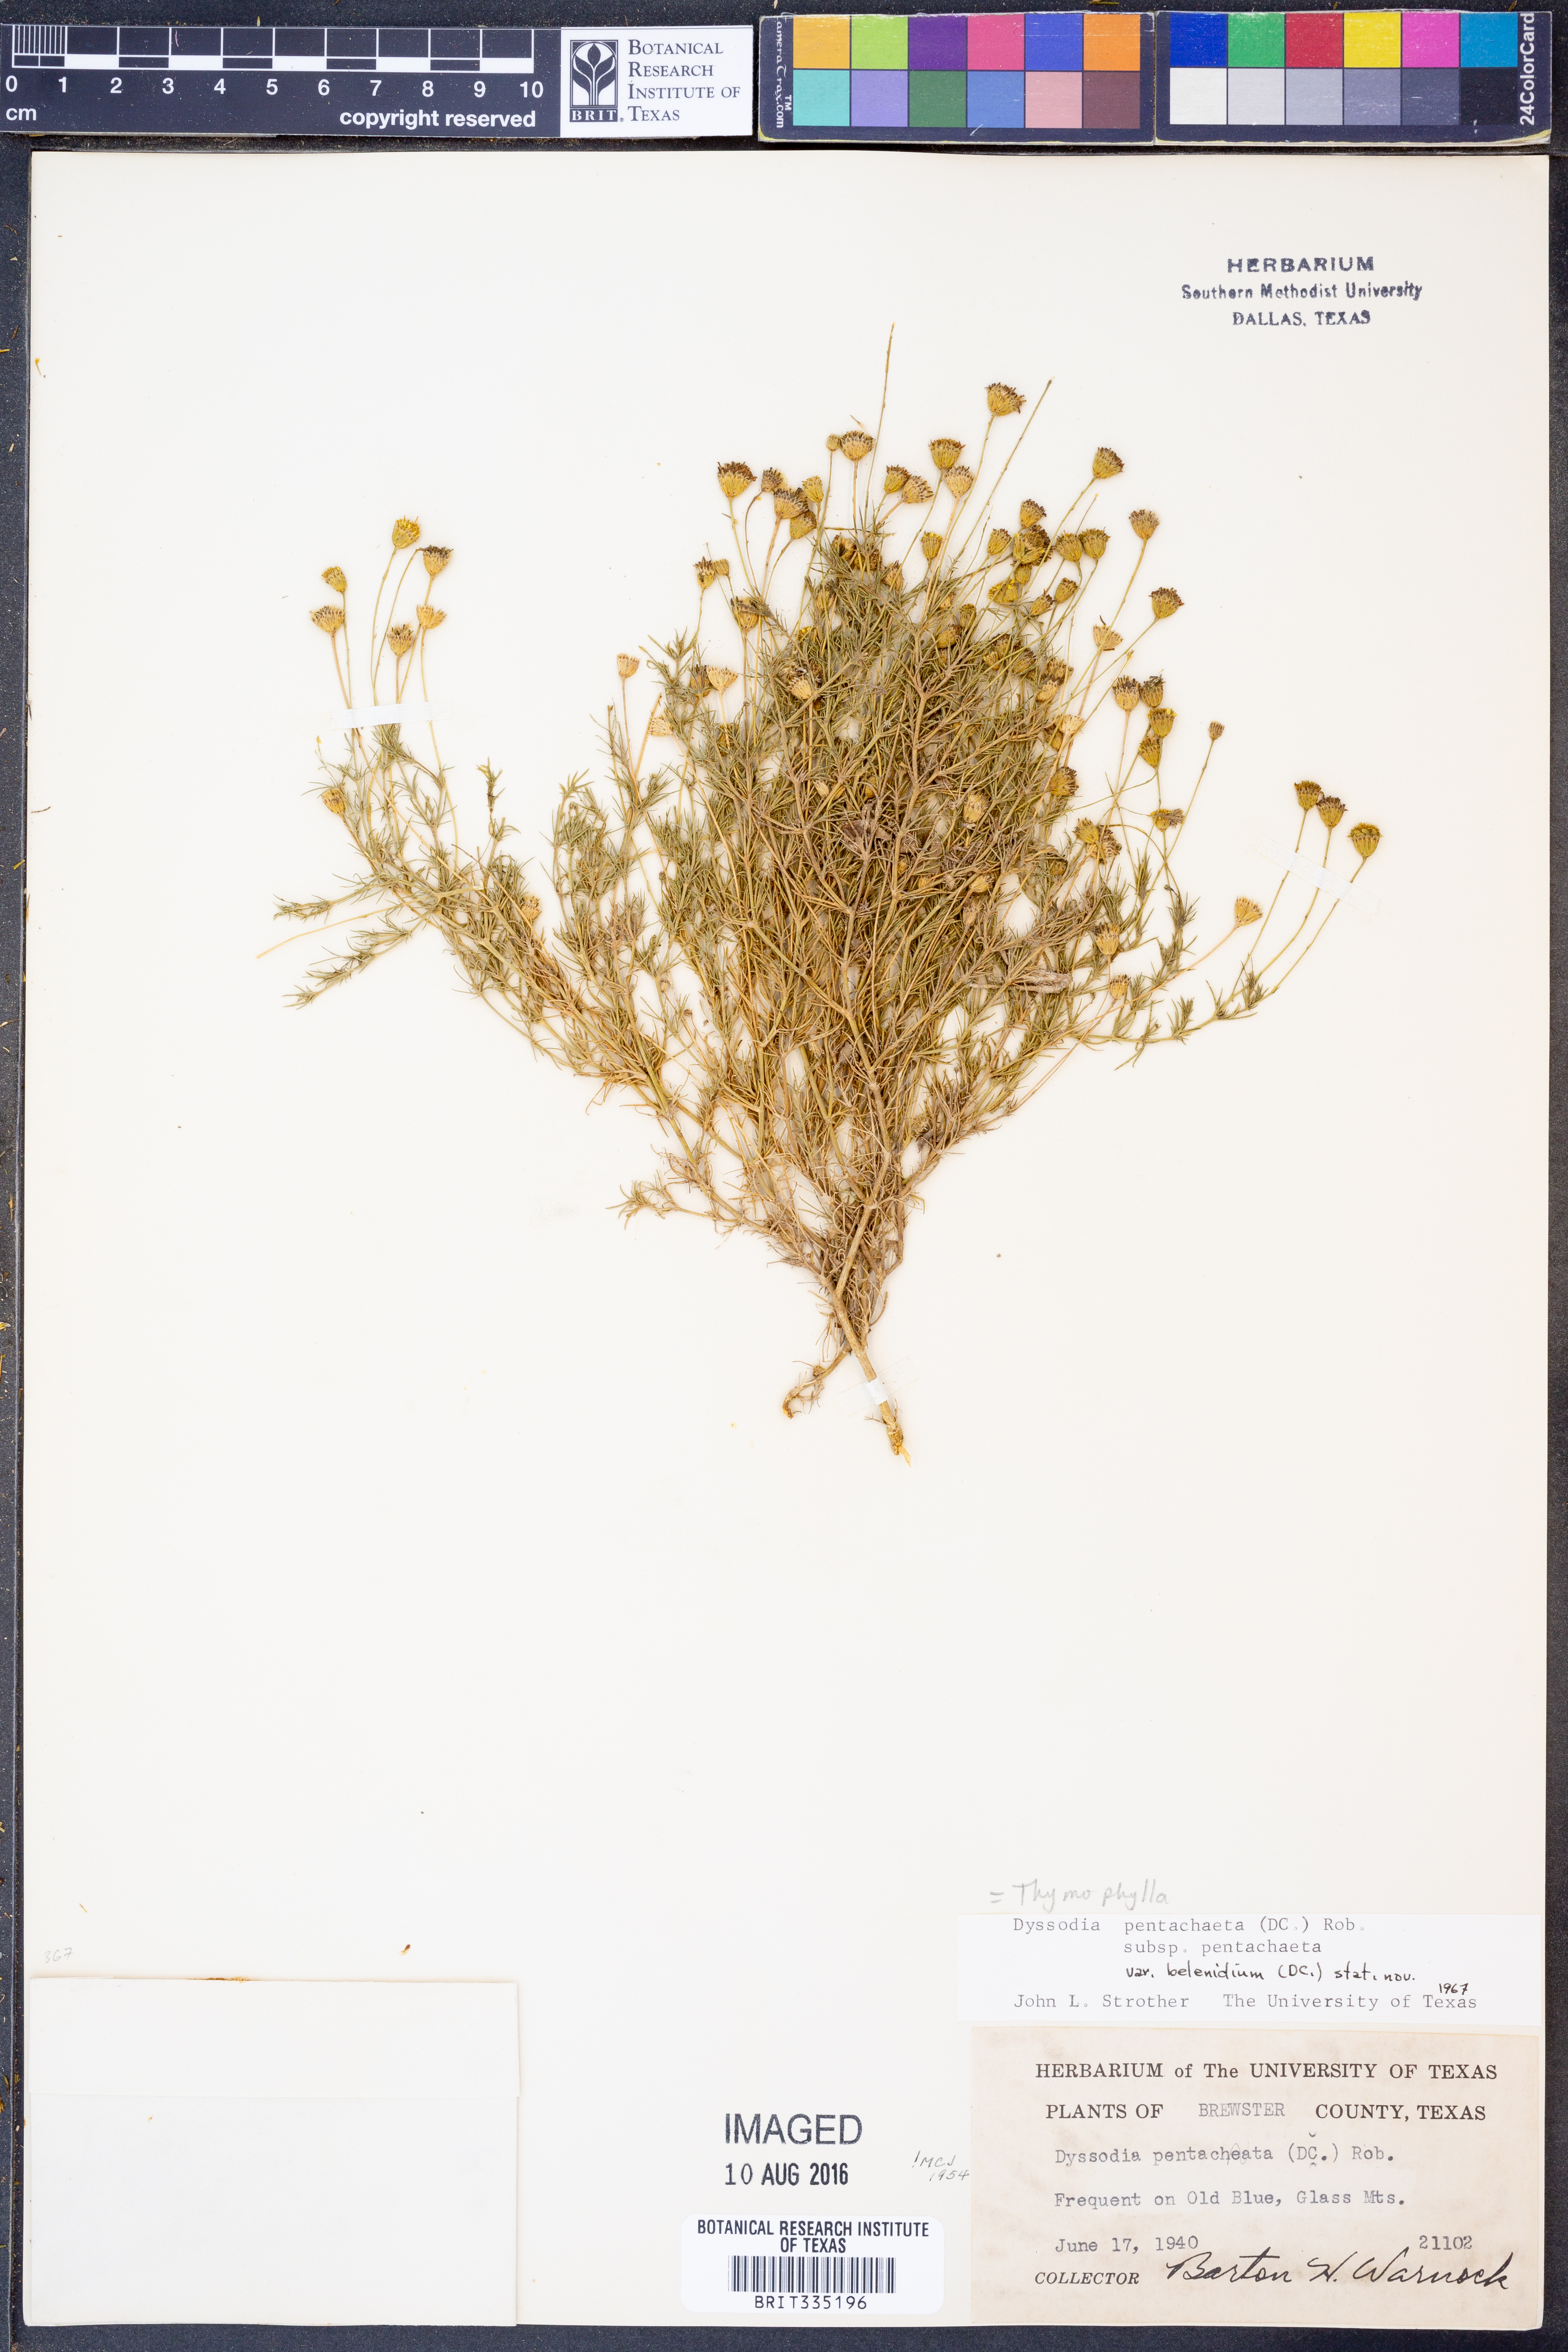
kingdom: Plantae
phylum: Tracheophyta
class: Magnoliopsida
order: Asterales
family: Asteraceae
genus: Thymophylla
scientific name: Thymophylla pentachaeta
